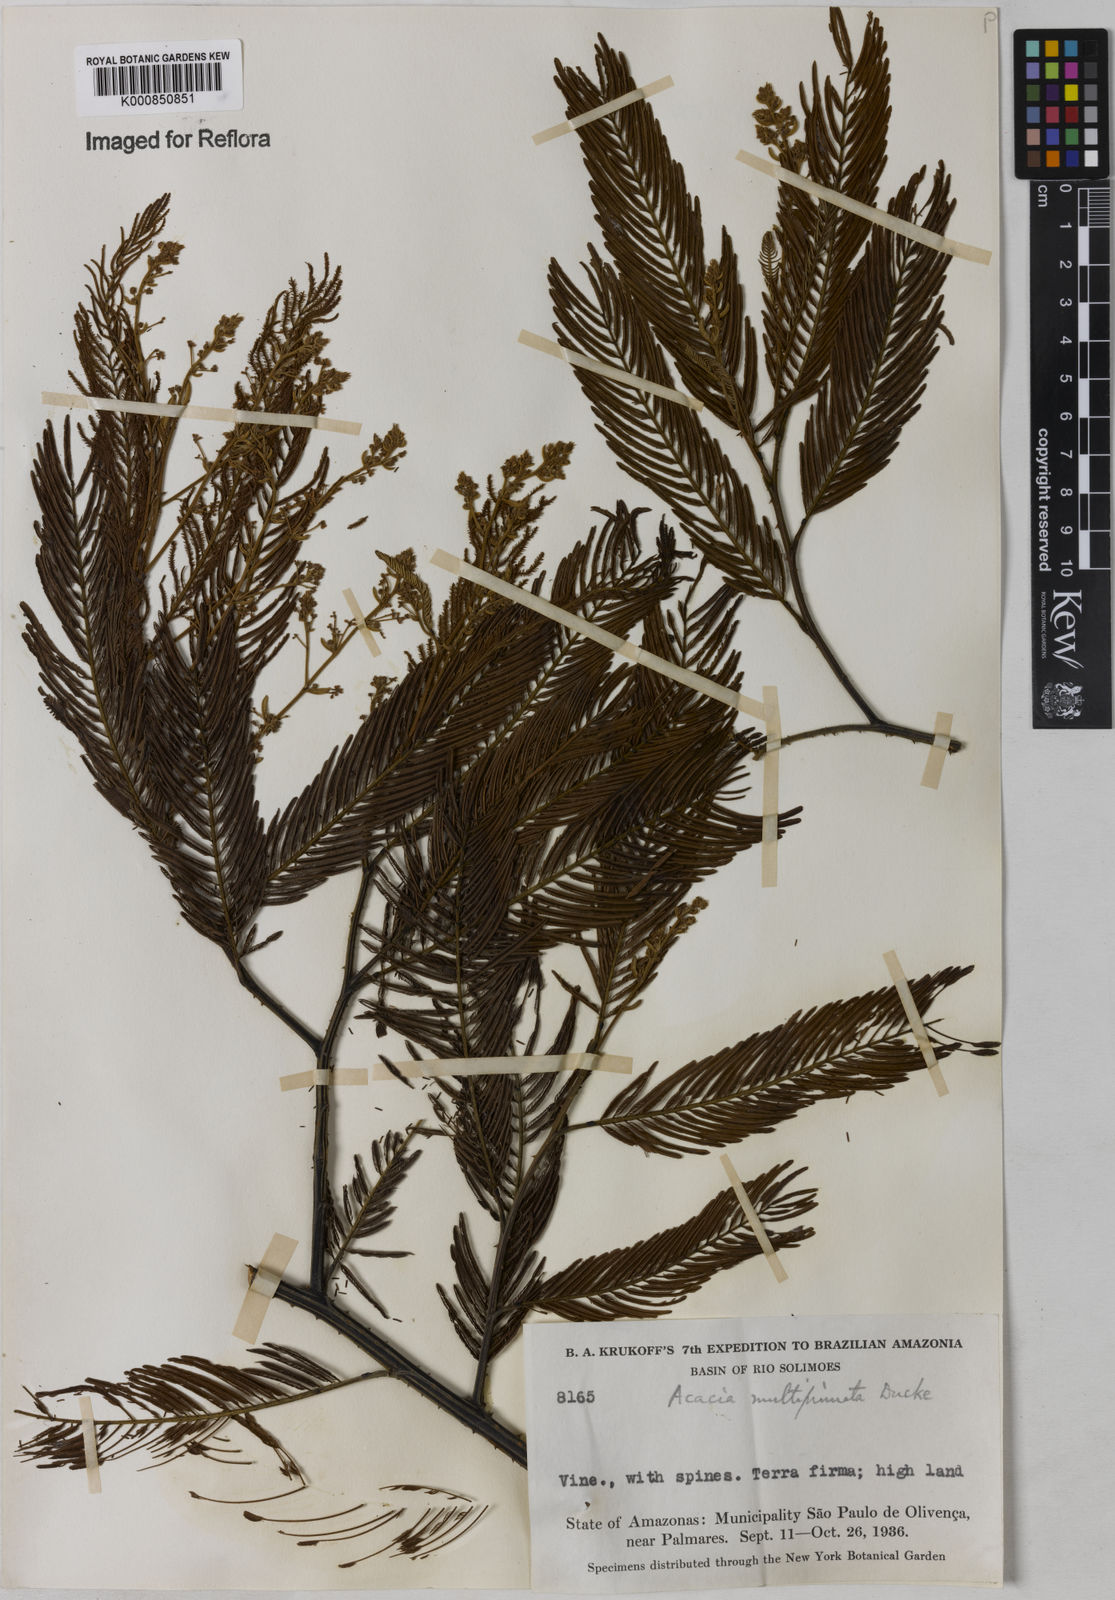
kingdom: Plantae
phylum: Tracheophyta
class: Magnoliopsida
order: Fabales
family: Fabaceae
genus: Senegalia
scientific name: Senegalia paniculata
